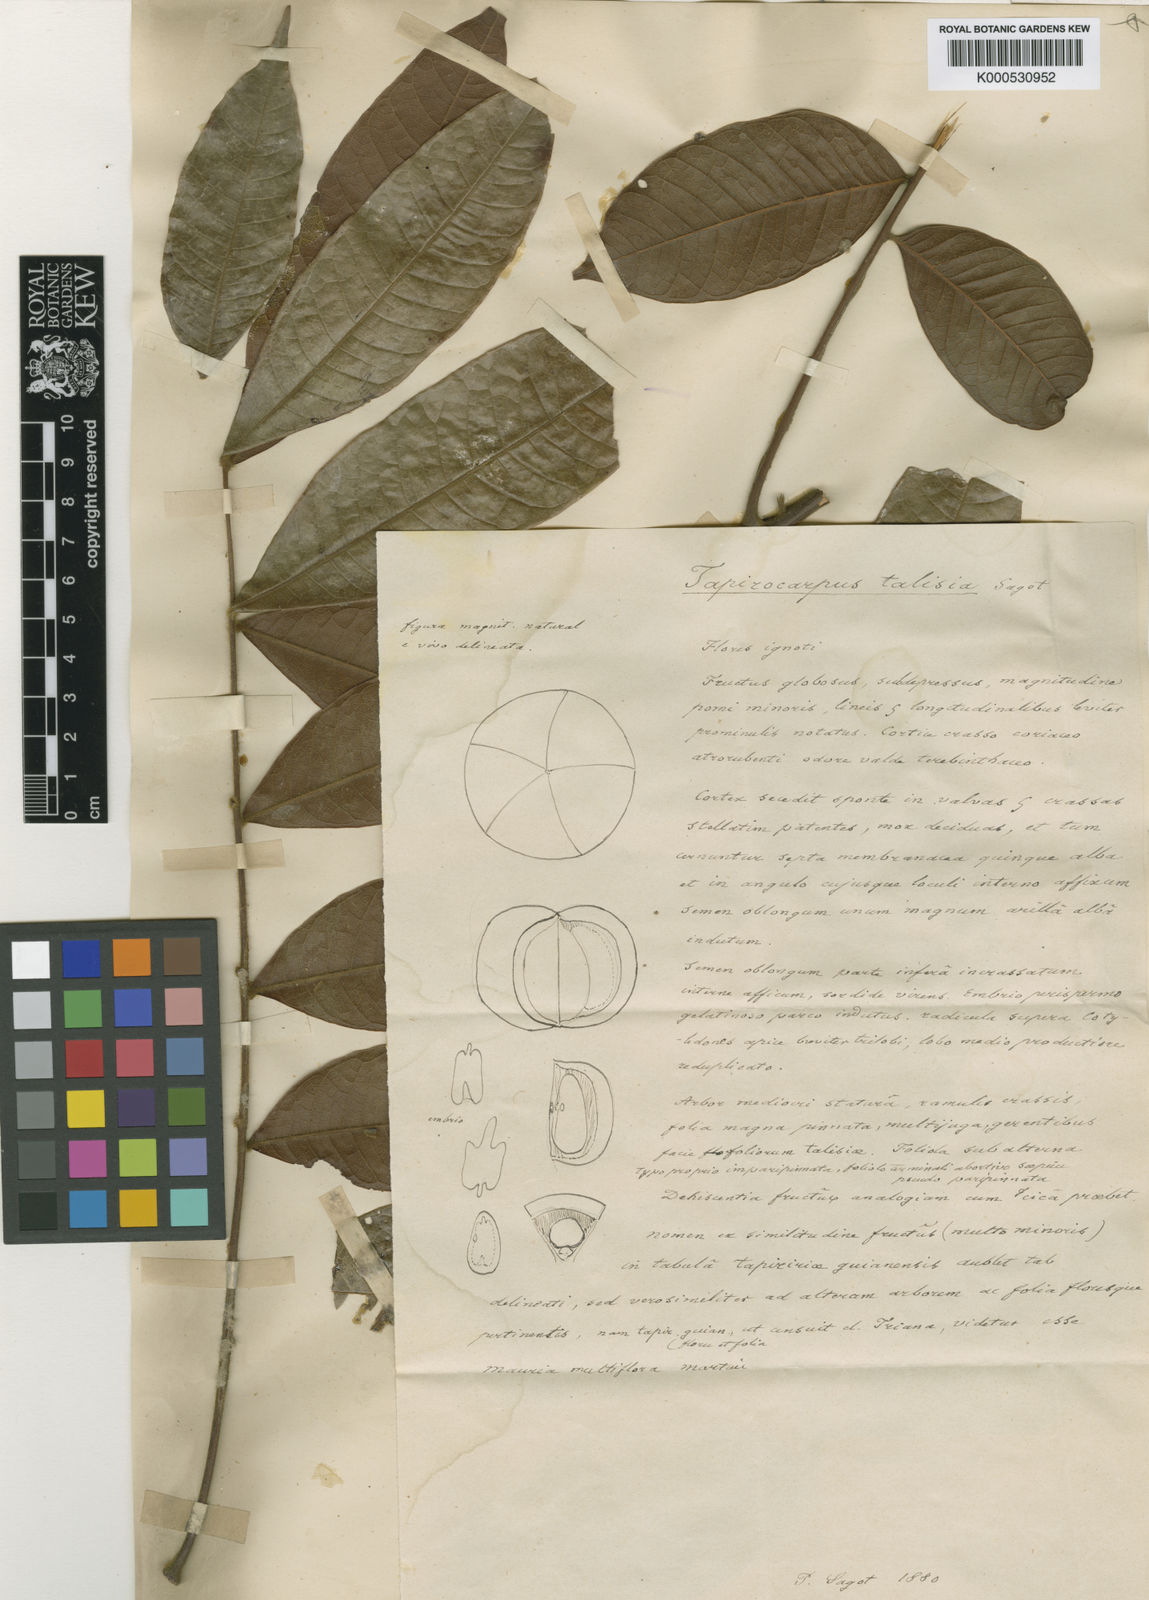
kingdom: Plantae
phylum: Tracheophyta
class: Magnoliopsida
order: Sapindales
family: Sapindaceae
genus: Tapirocarpus
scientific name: Tapirocarpus talisia
